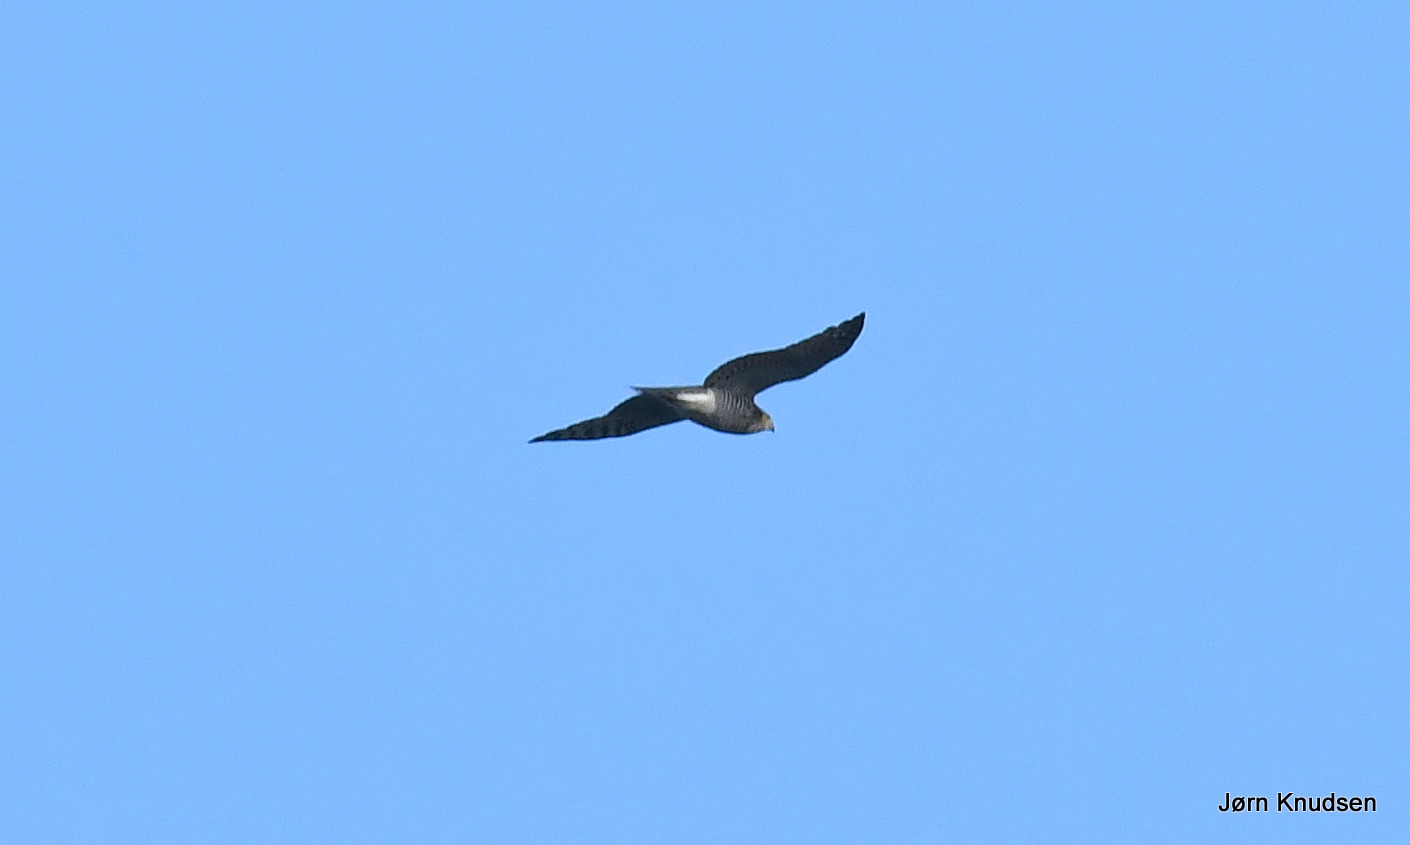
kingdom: Animalia
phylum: Chordata
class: Aves
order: Accipitriformes
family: Accipitridae
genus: Accipiter
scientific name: Accipiter nisus
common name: Spurvehøg
